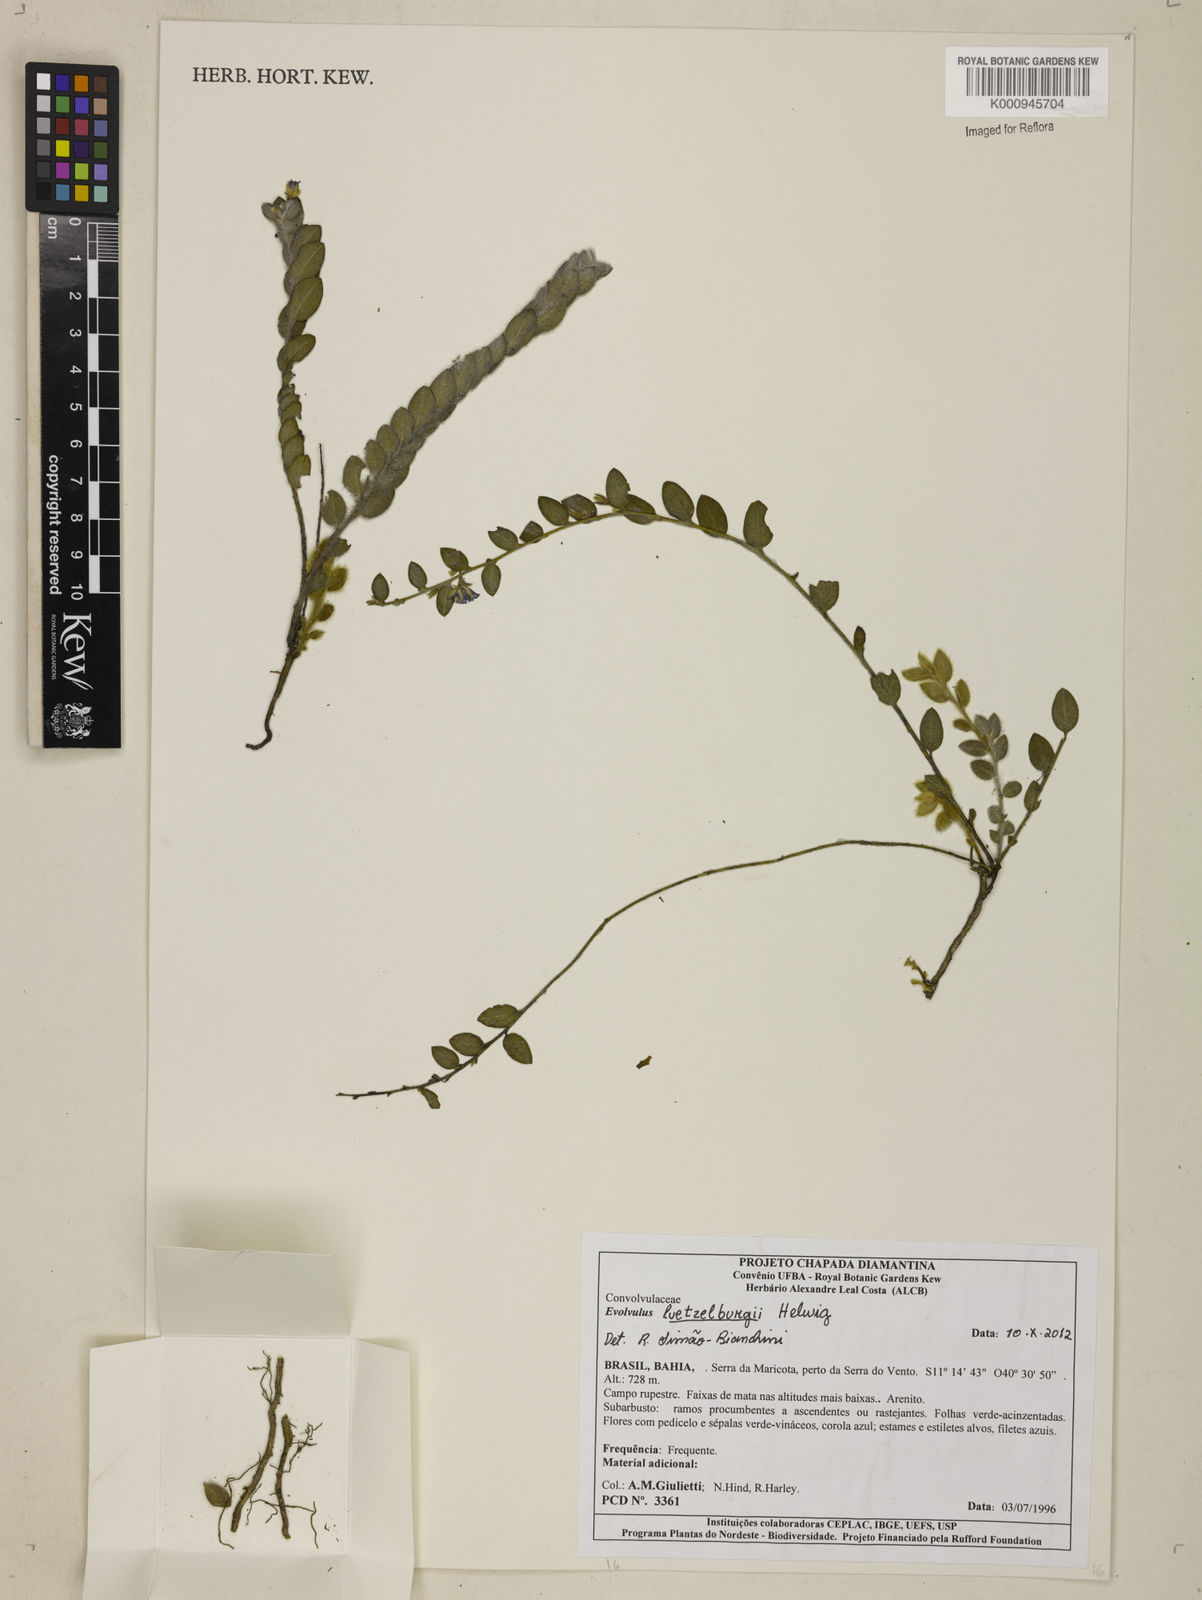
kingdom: Plantae
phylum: Tracheophyta
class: Magnoliopsida
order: Solanales
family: Convolvulaceae
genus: Evolvulus
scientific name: Evolvulus luetzelburgii
